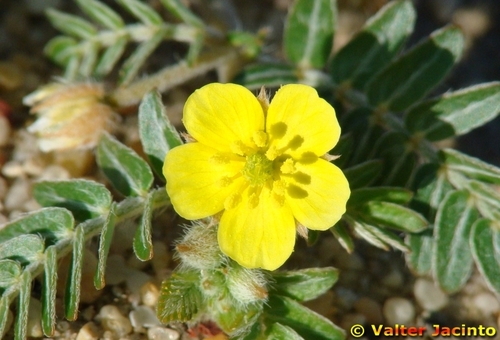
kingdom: Plantae
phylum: Tracheophyta
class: Magnoliopsida
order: Zygophyllales
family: Zygophyllaceae
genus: Tribulus
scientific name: Tribulus terrestris
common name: Puncturevine
